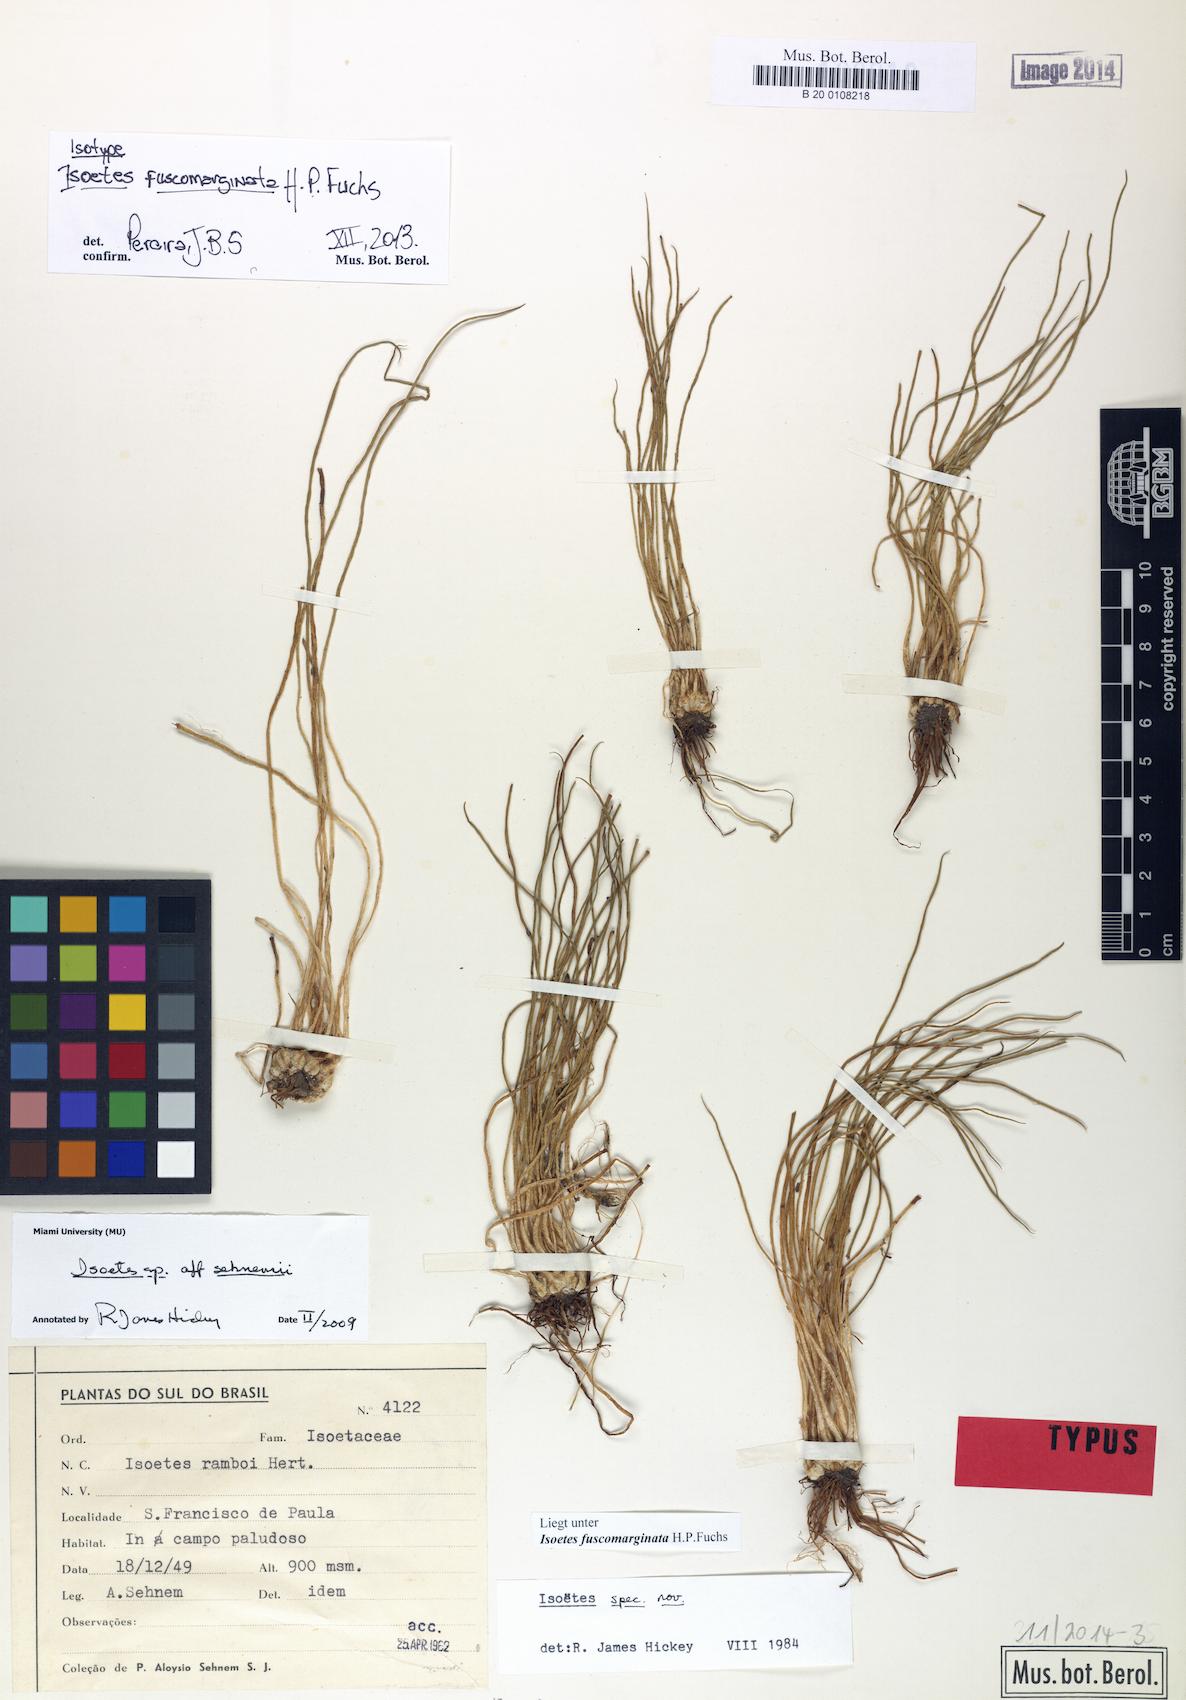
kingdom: Plantae
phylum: Tracheophyta
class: Lycopodiopsida
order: Isoetales
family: Isoetaceae
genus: Isoetes
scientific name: Isoetes fuscomarginata
